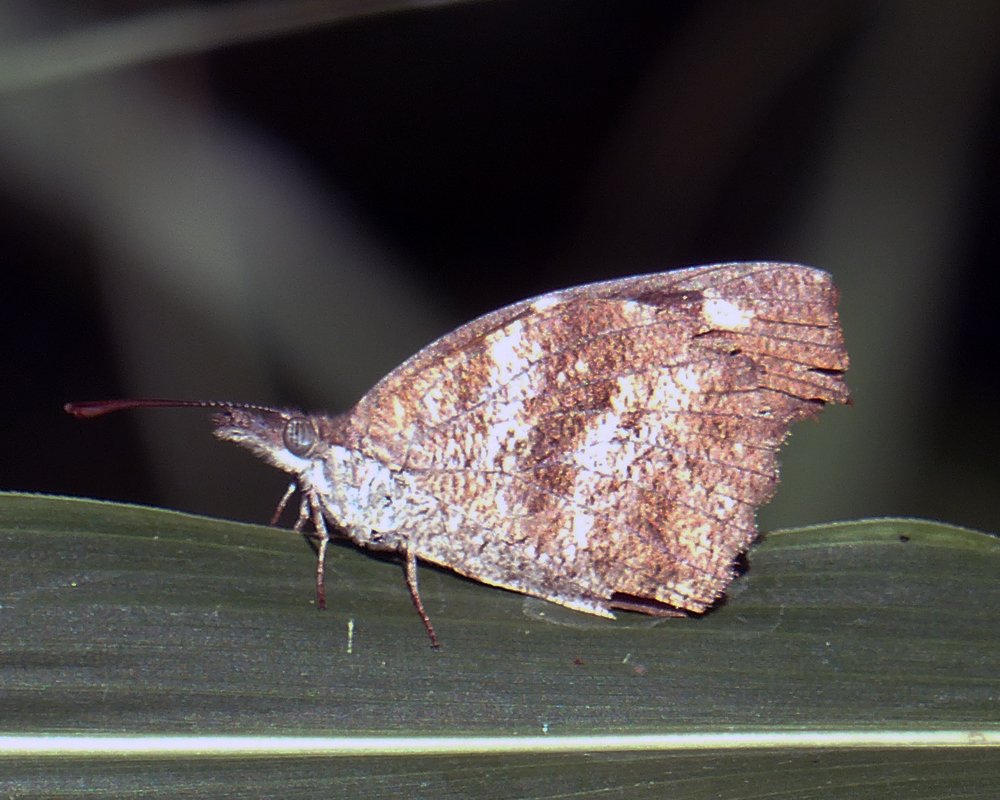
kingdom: Animalia
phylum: Arthropoda
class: Insecta
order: Lepidoptera
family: Nymphalidae
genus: Libytheana
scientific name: Libytheana carinenta
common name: American Snout
